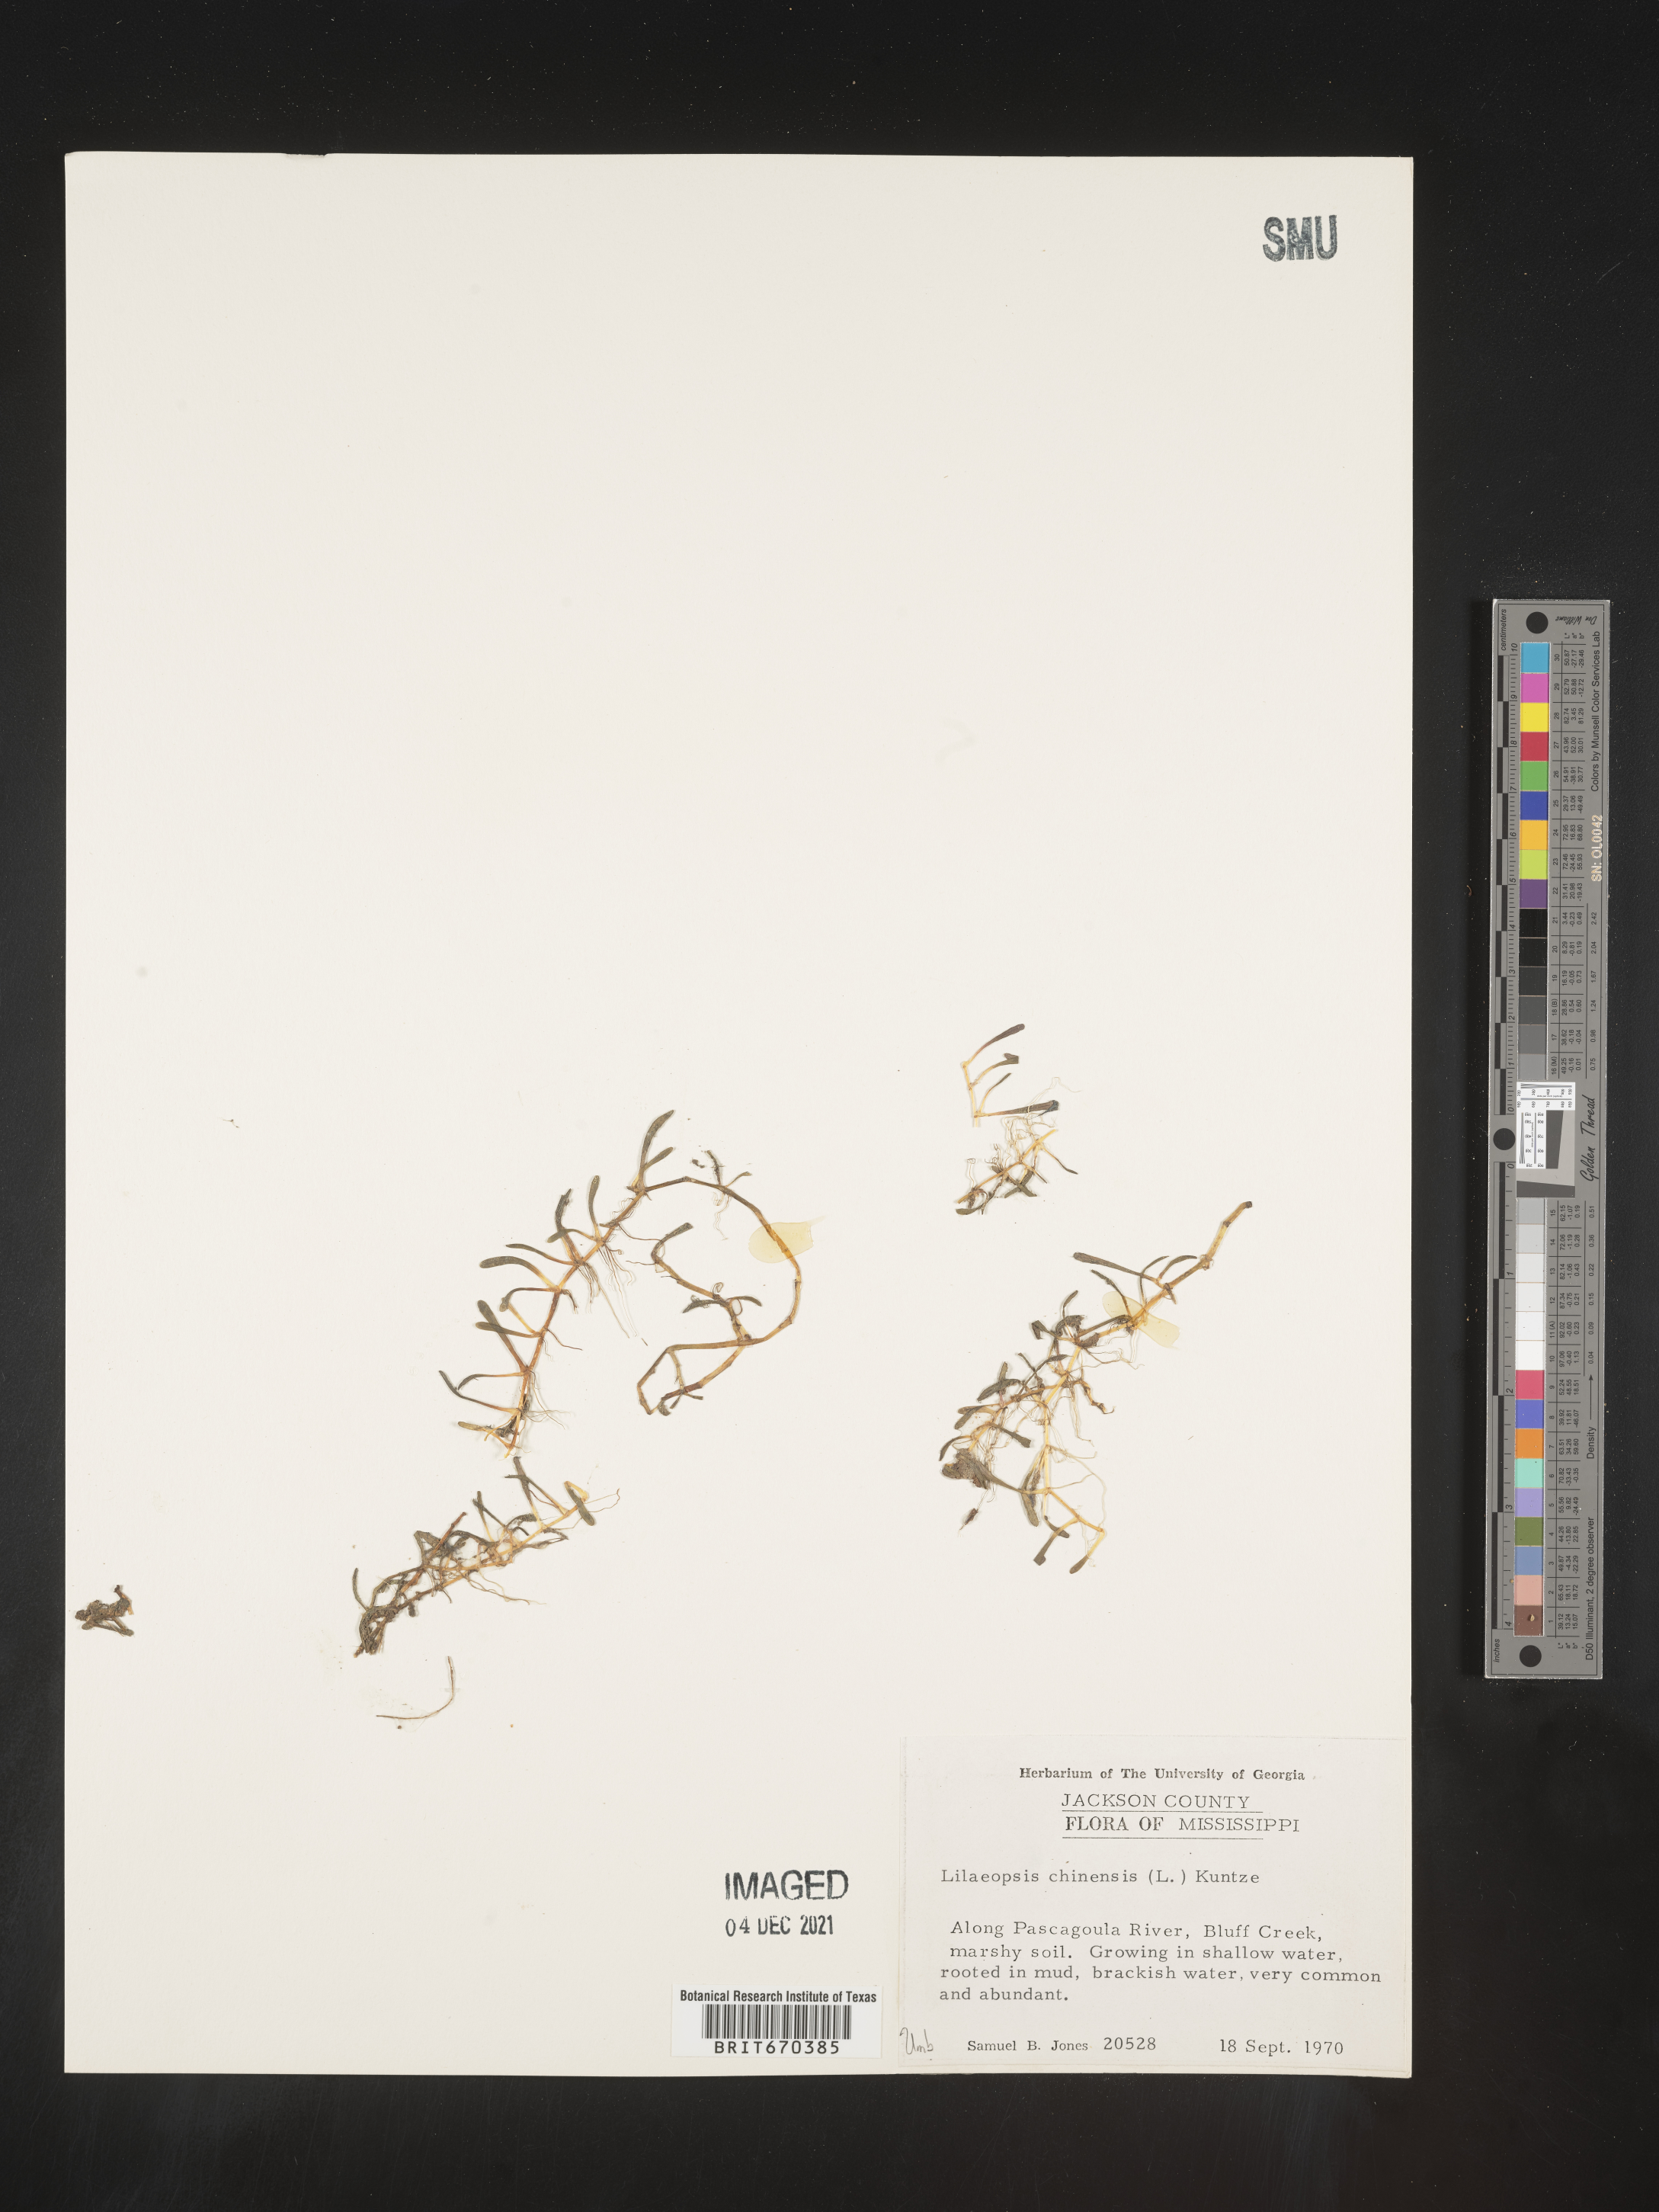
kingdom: Plantae
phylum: Tracheophyta
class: Magnoliopsida
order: Apiales
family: Apiaceae
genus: Lilaeopsis
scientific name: Lilaeopsis
